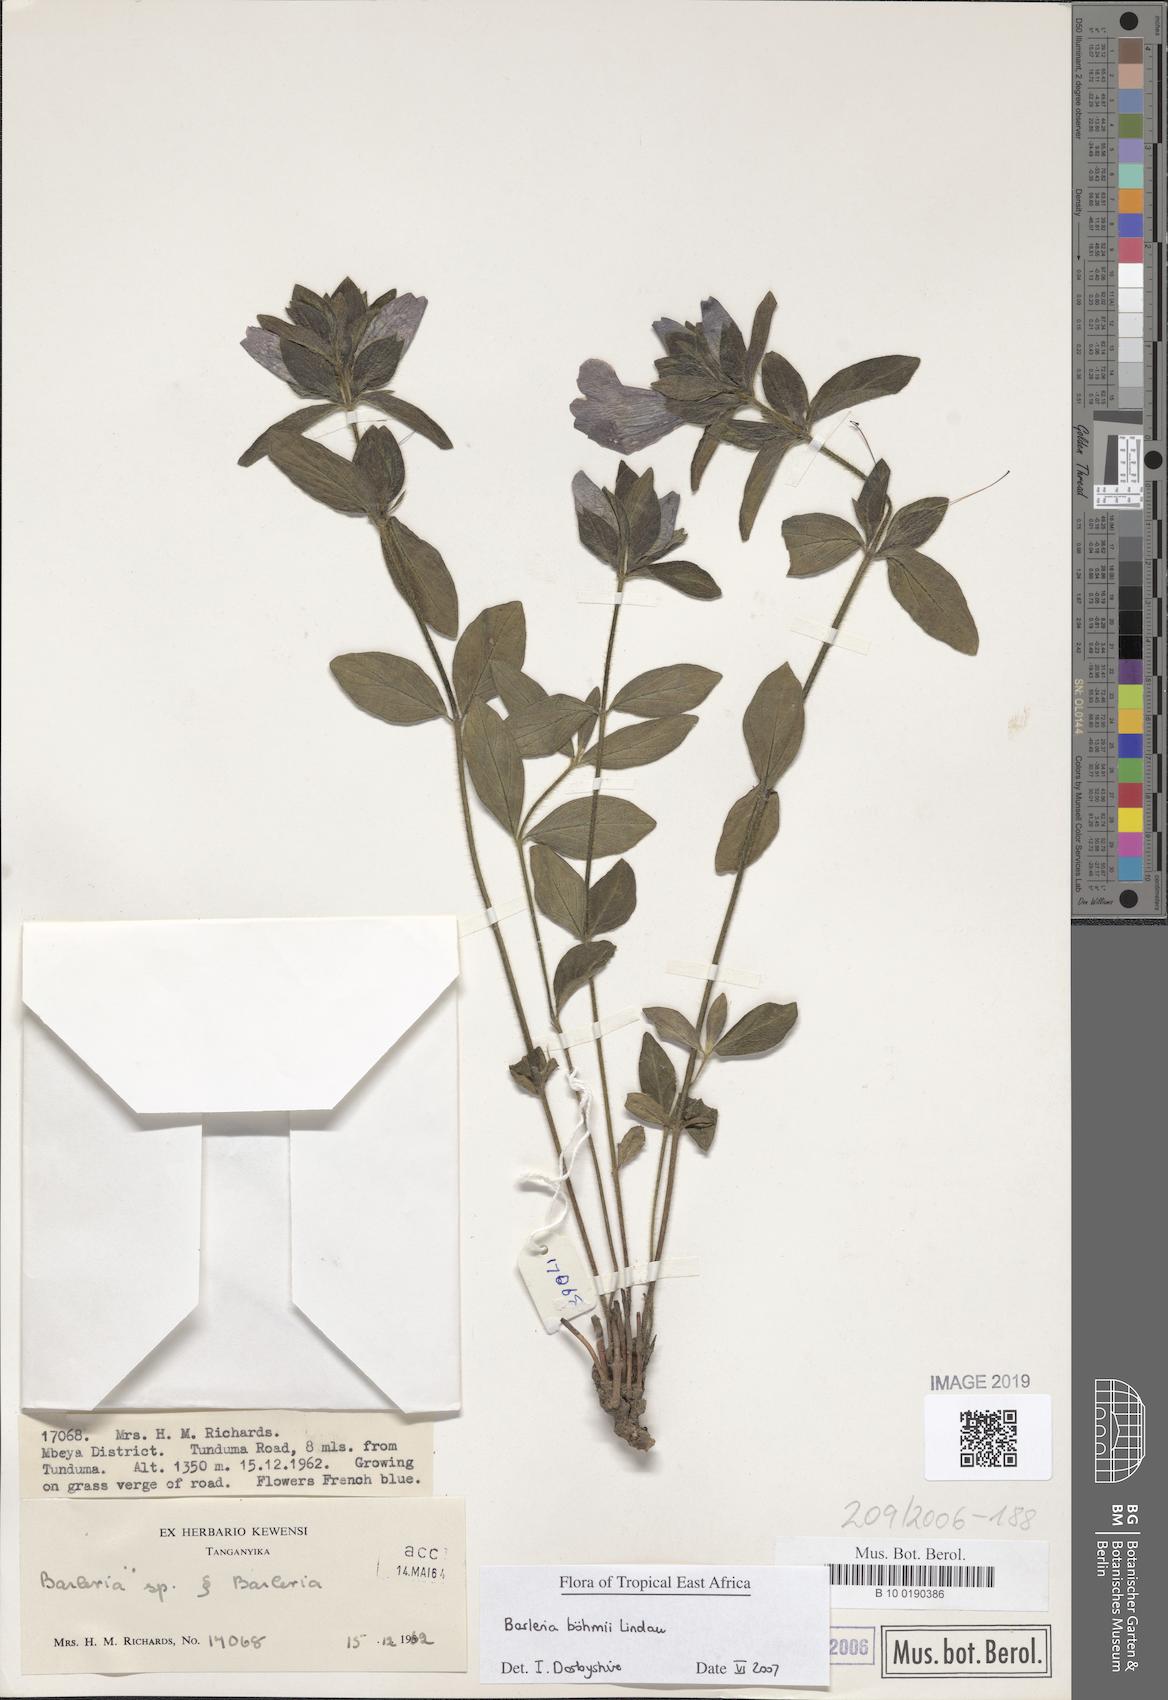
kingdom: Plantae
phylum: Tracheophyta
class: Magnoliopsida
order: Lamiales
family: Acanthaceae
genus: Barleria
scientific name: Barleria boehmii
